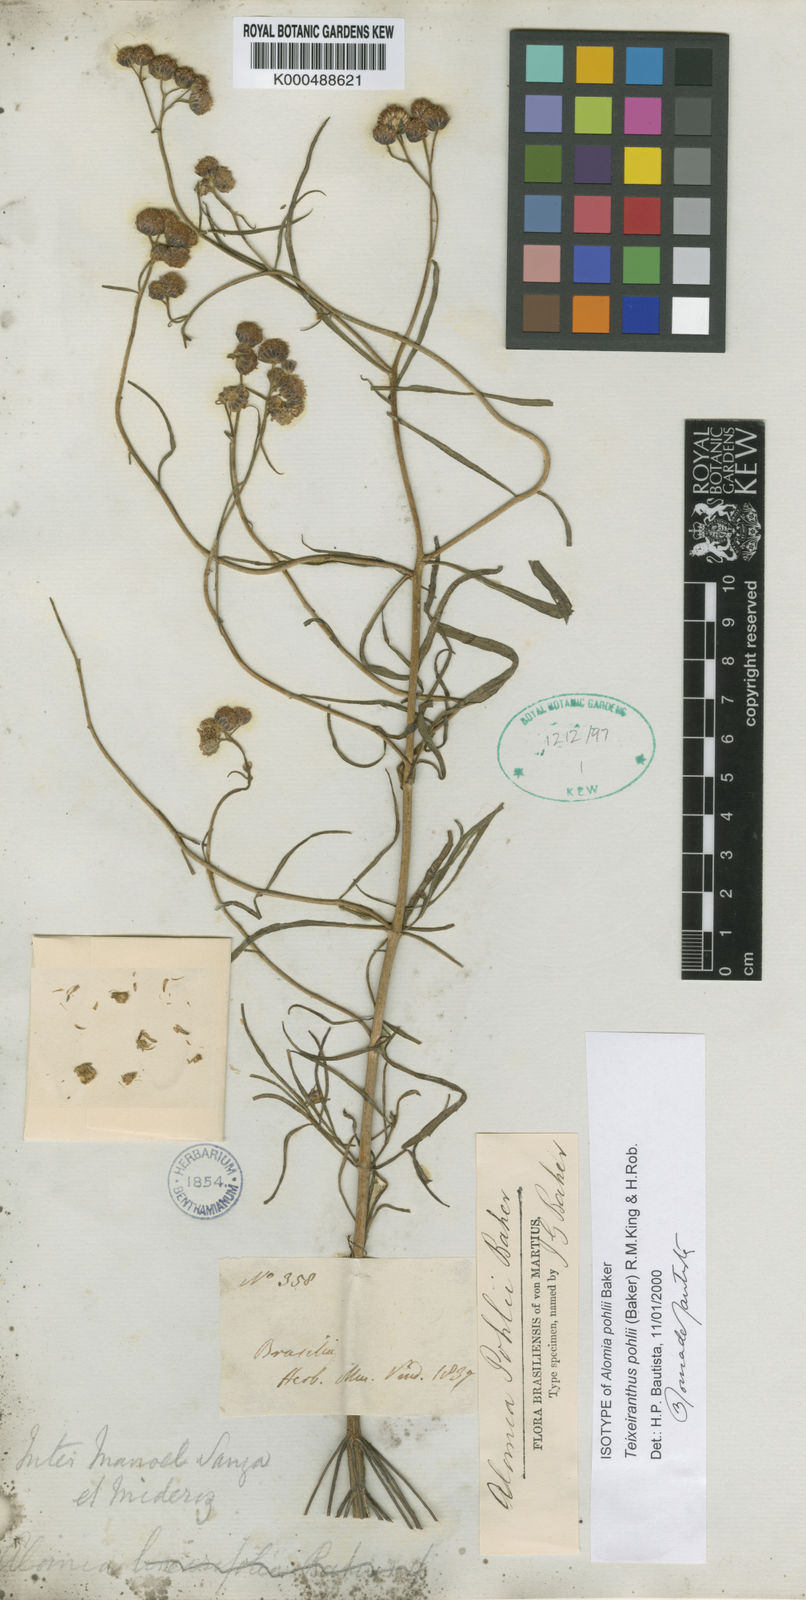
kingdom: Plantae
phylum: Tracheophyta
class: Magnoliopsida
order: Asterales
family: Asteraceae
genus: Teixeiranthus
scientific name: Teixeiranthus pohlii
